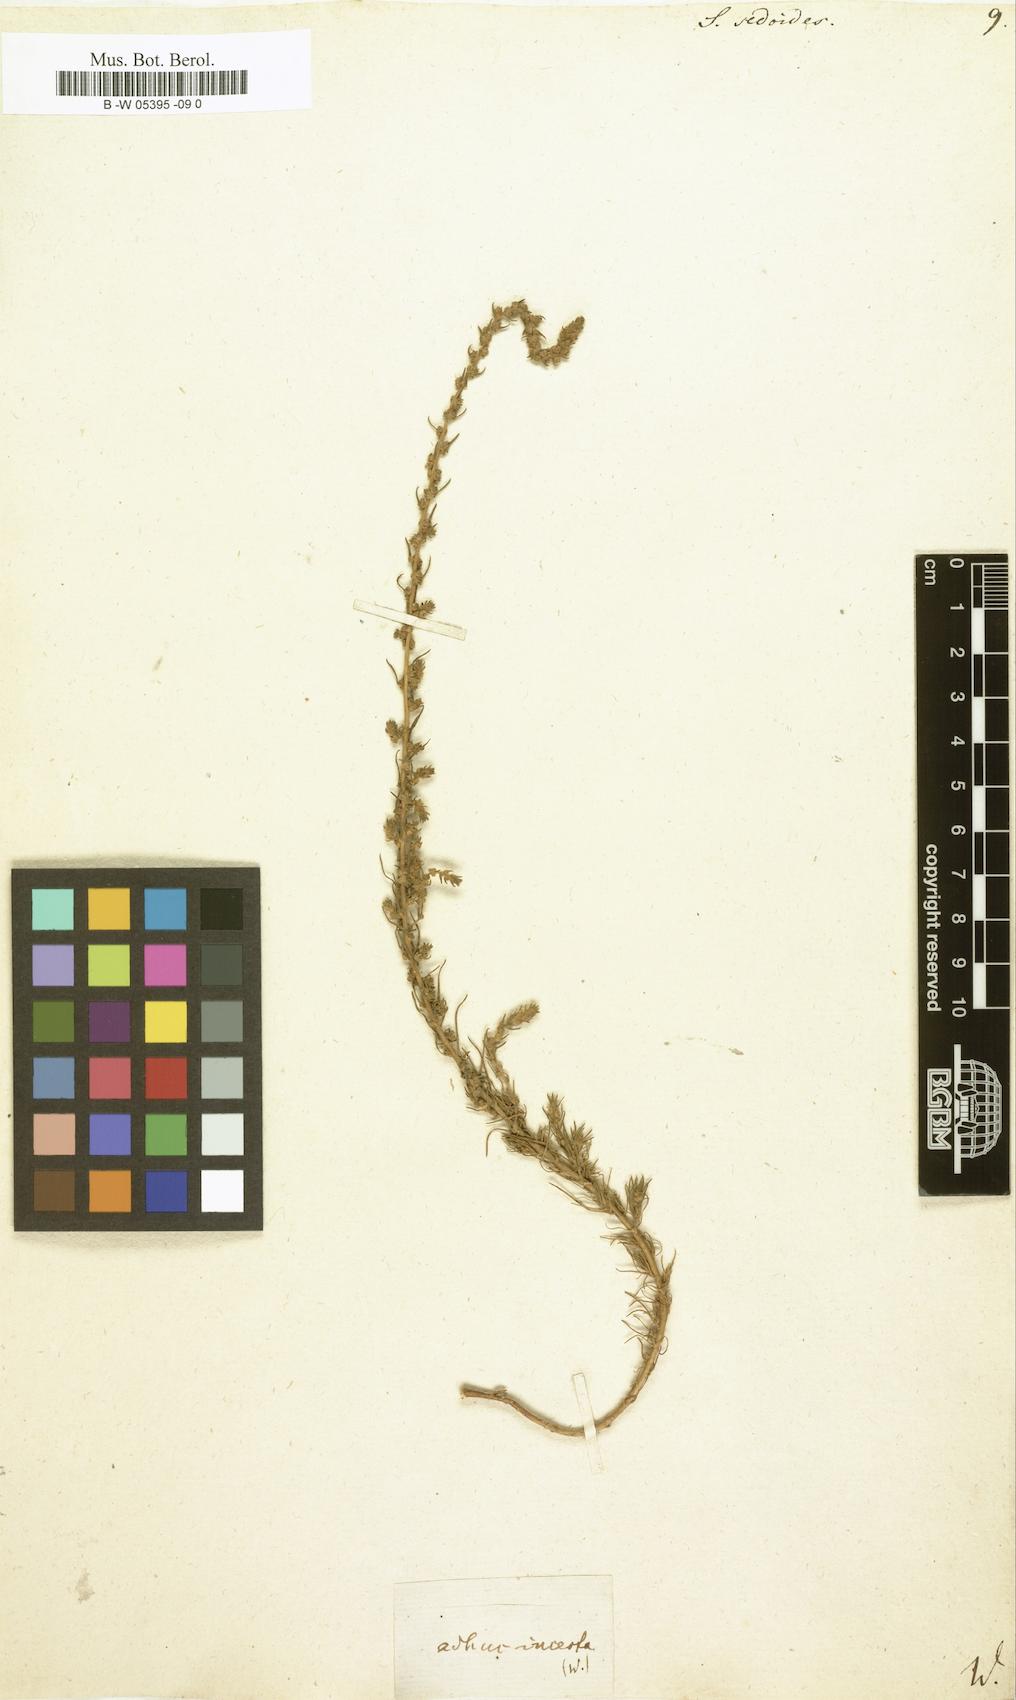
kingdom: Plantae
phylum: Tracheophyta
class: Magnoliopsida
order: Caryophyllales
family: Amaranthaceae
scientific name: Amaranthaceae
